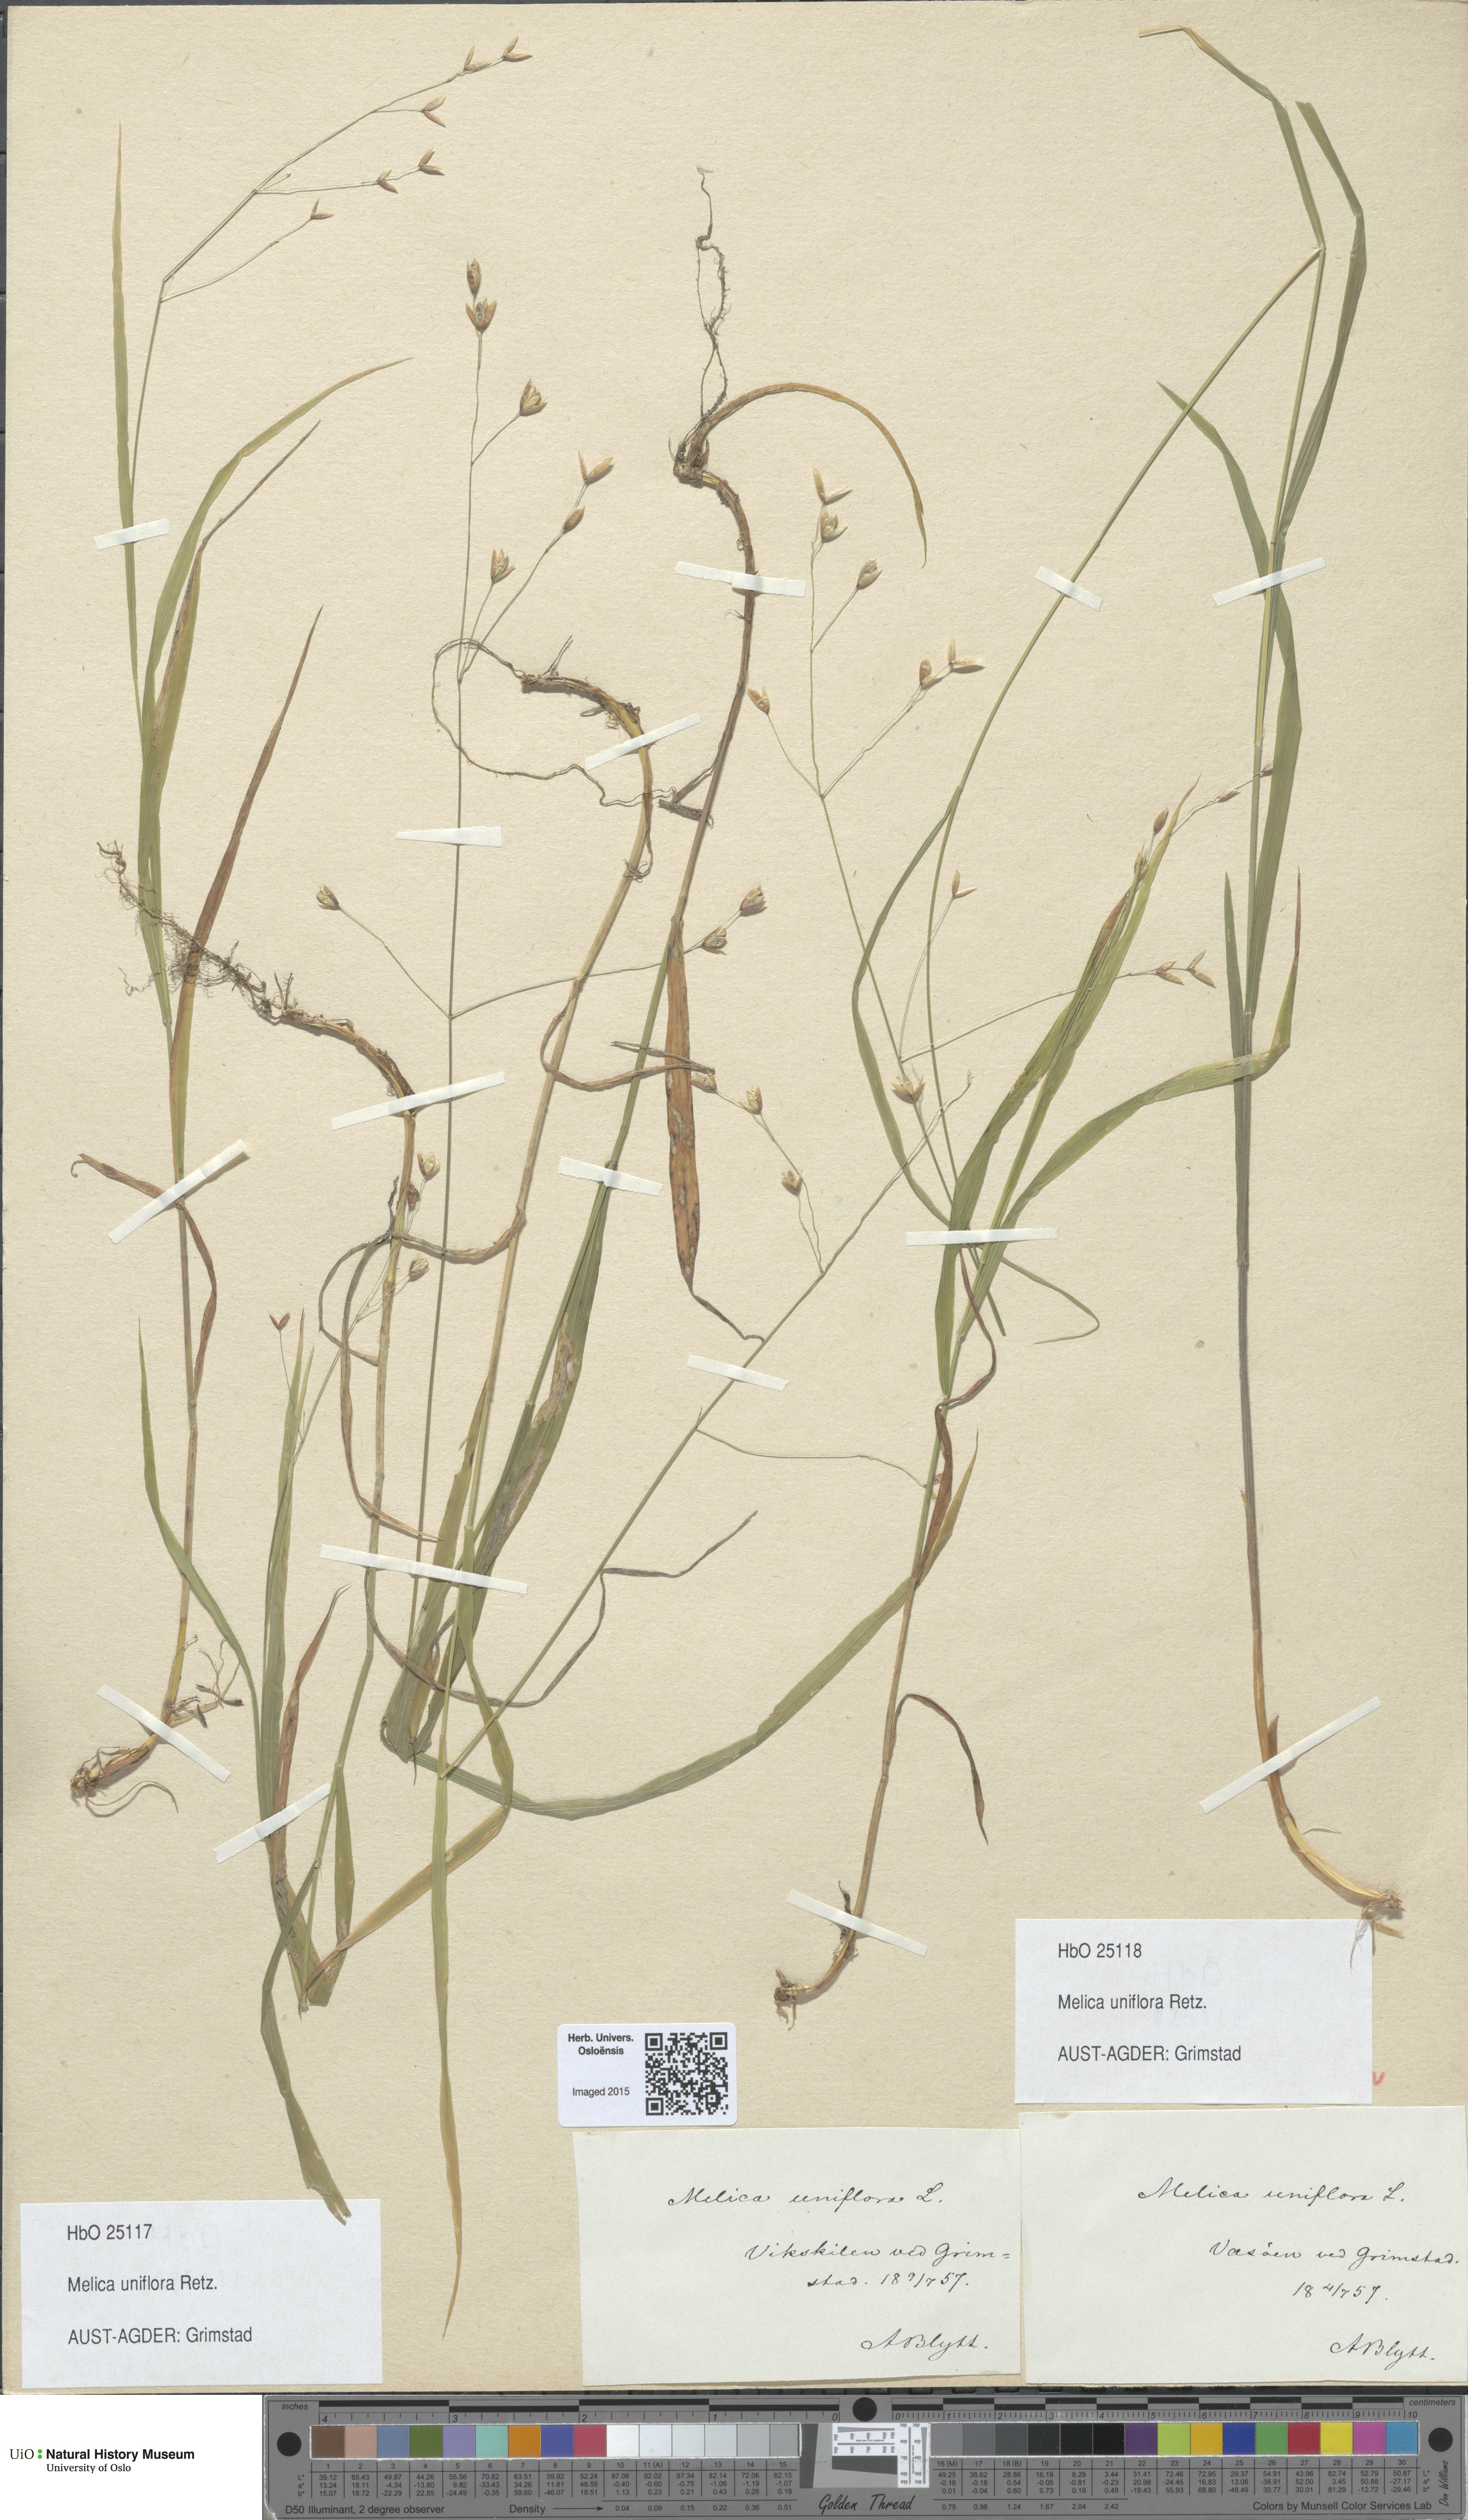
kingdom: Plantae
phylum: Tracheophyta
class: Liliopsida
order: Poales
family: Poaceae
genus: Melica
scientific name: Melica uniflora
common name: Wood melick
